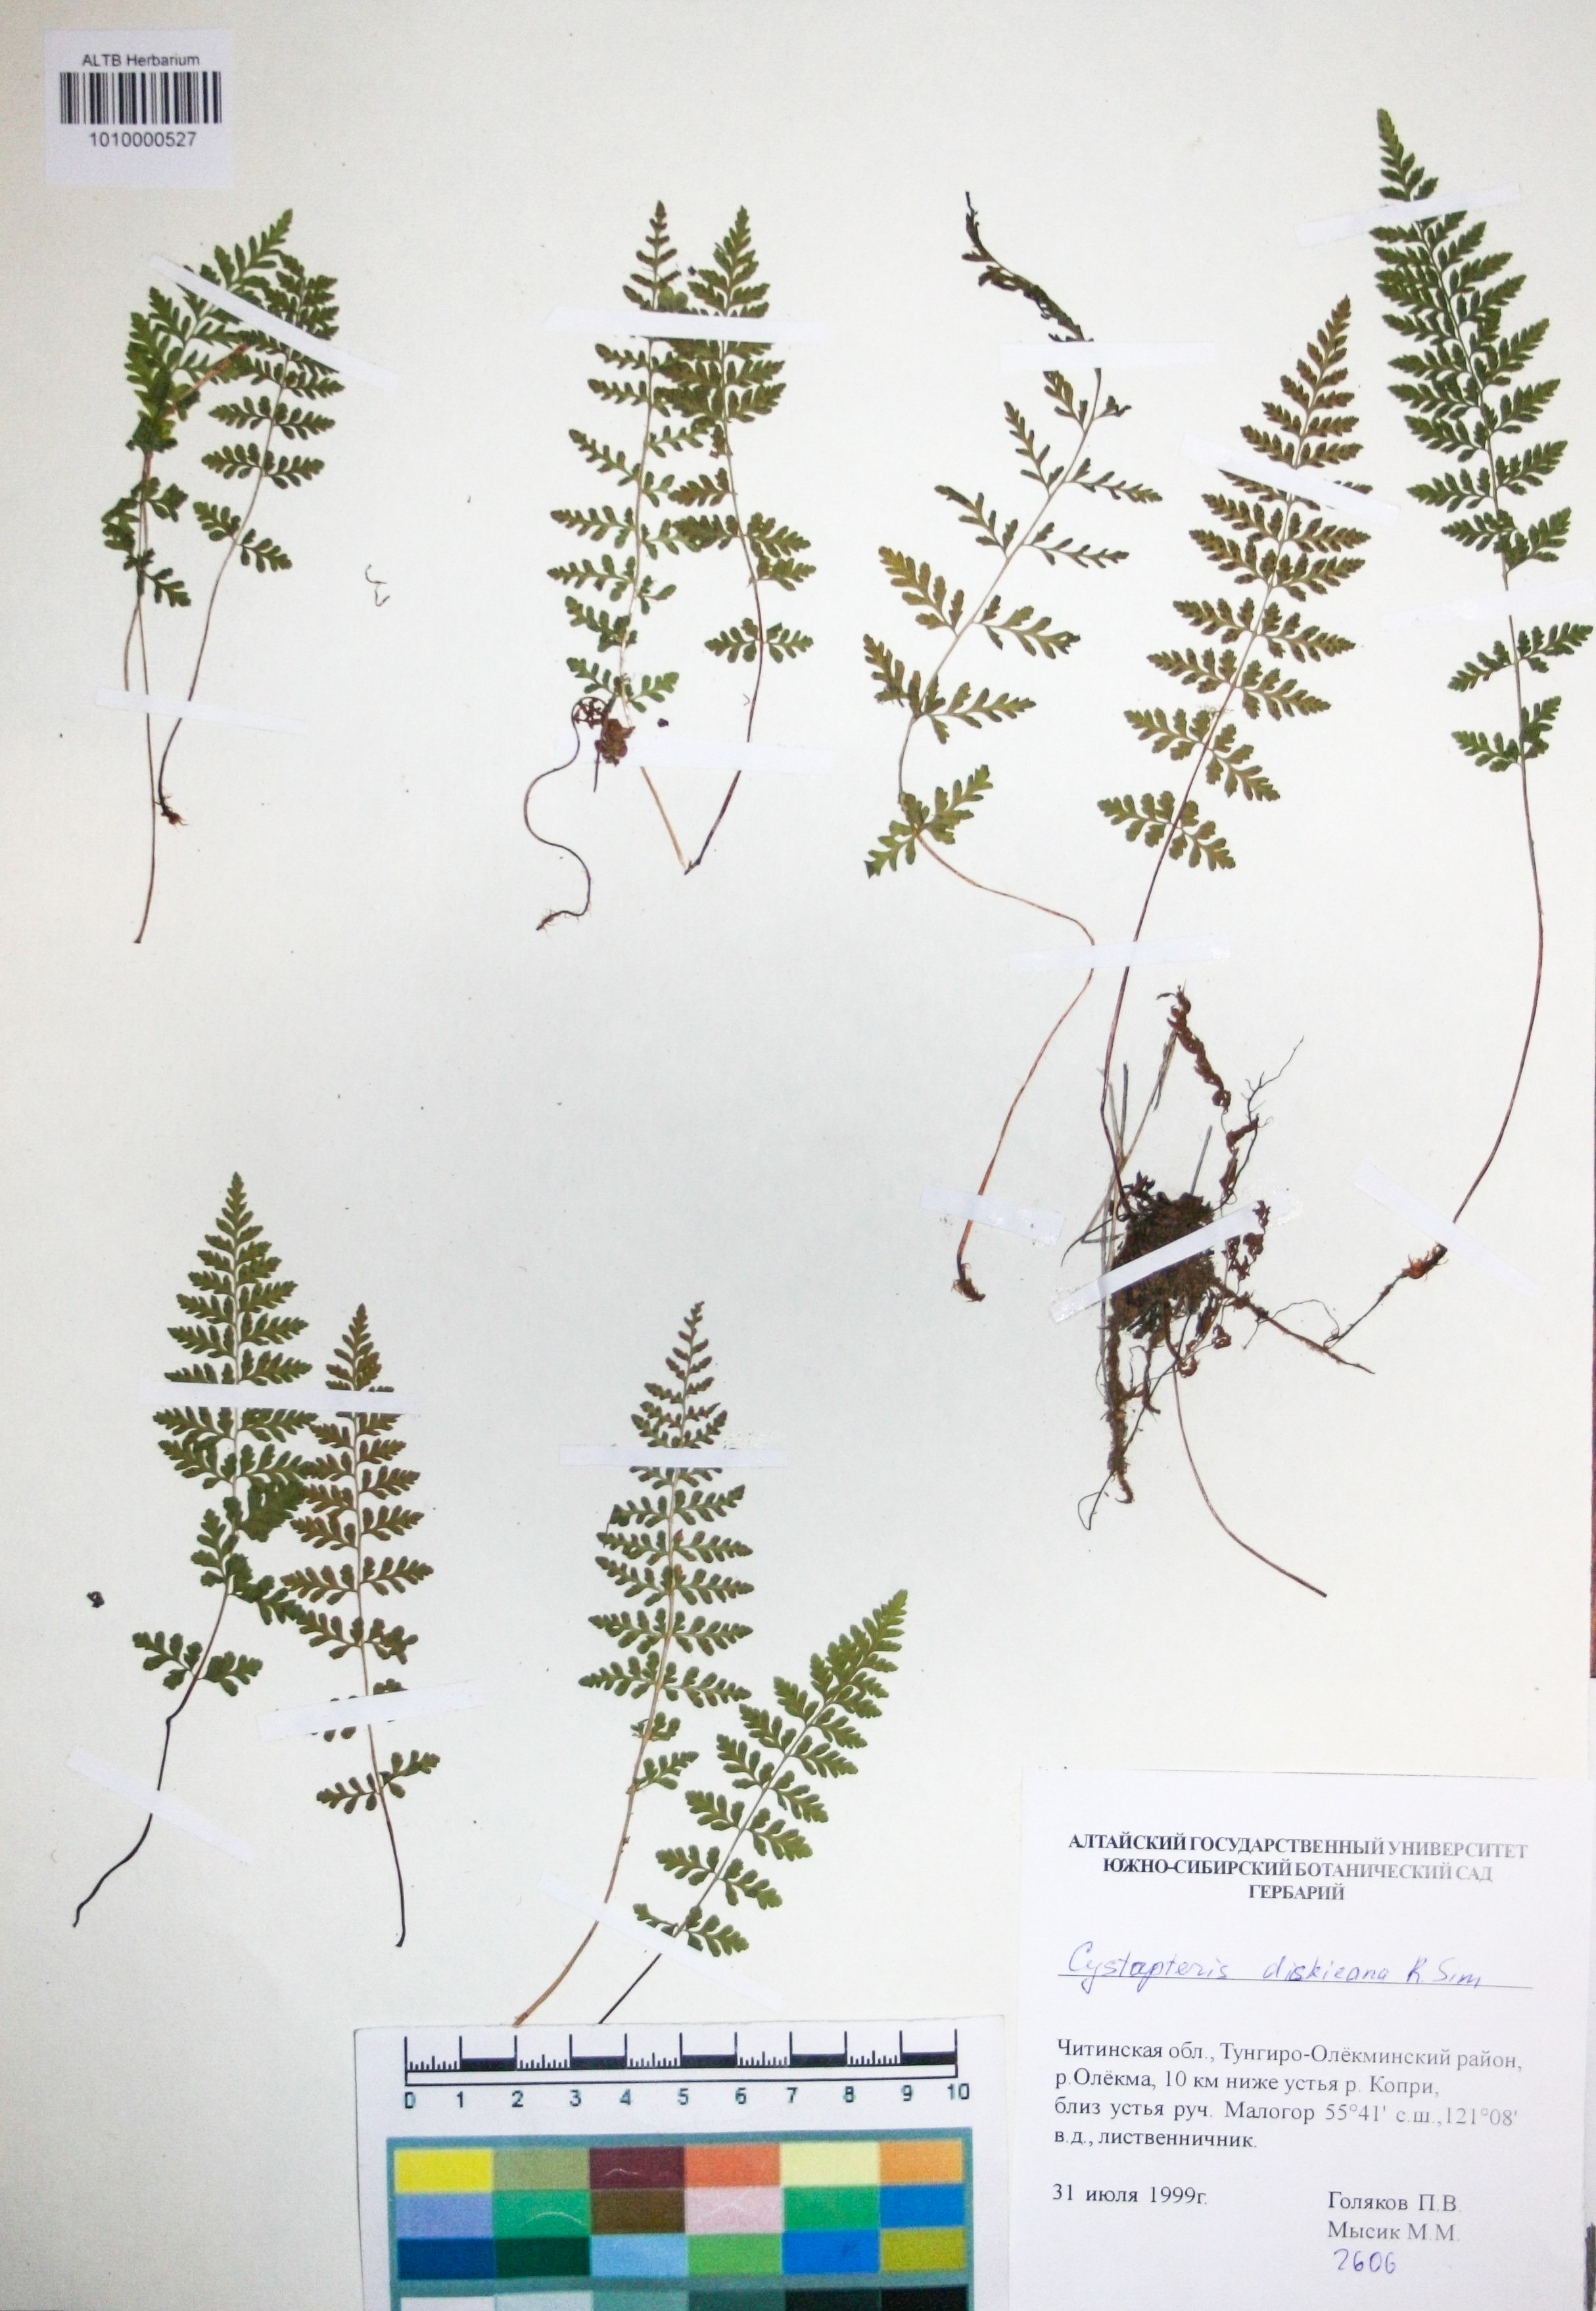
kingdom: Plantae
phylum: Tracheophyta
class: Polypodiopsida
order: Polypodiales
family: Cystopteridaceae
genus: Cystopteris
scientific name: Cystopteris dickieana
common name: Dickie's bladder-fern
